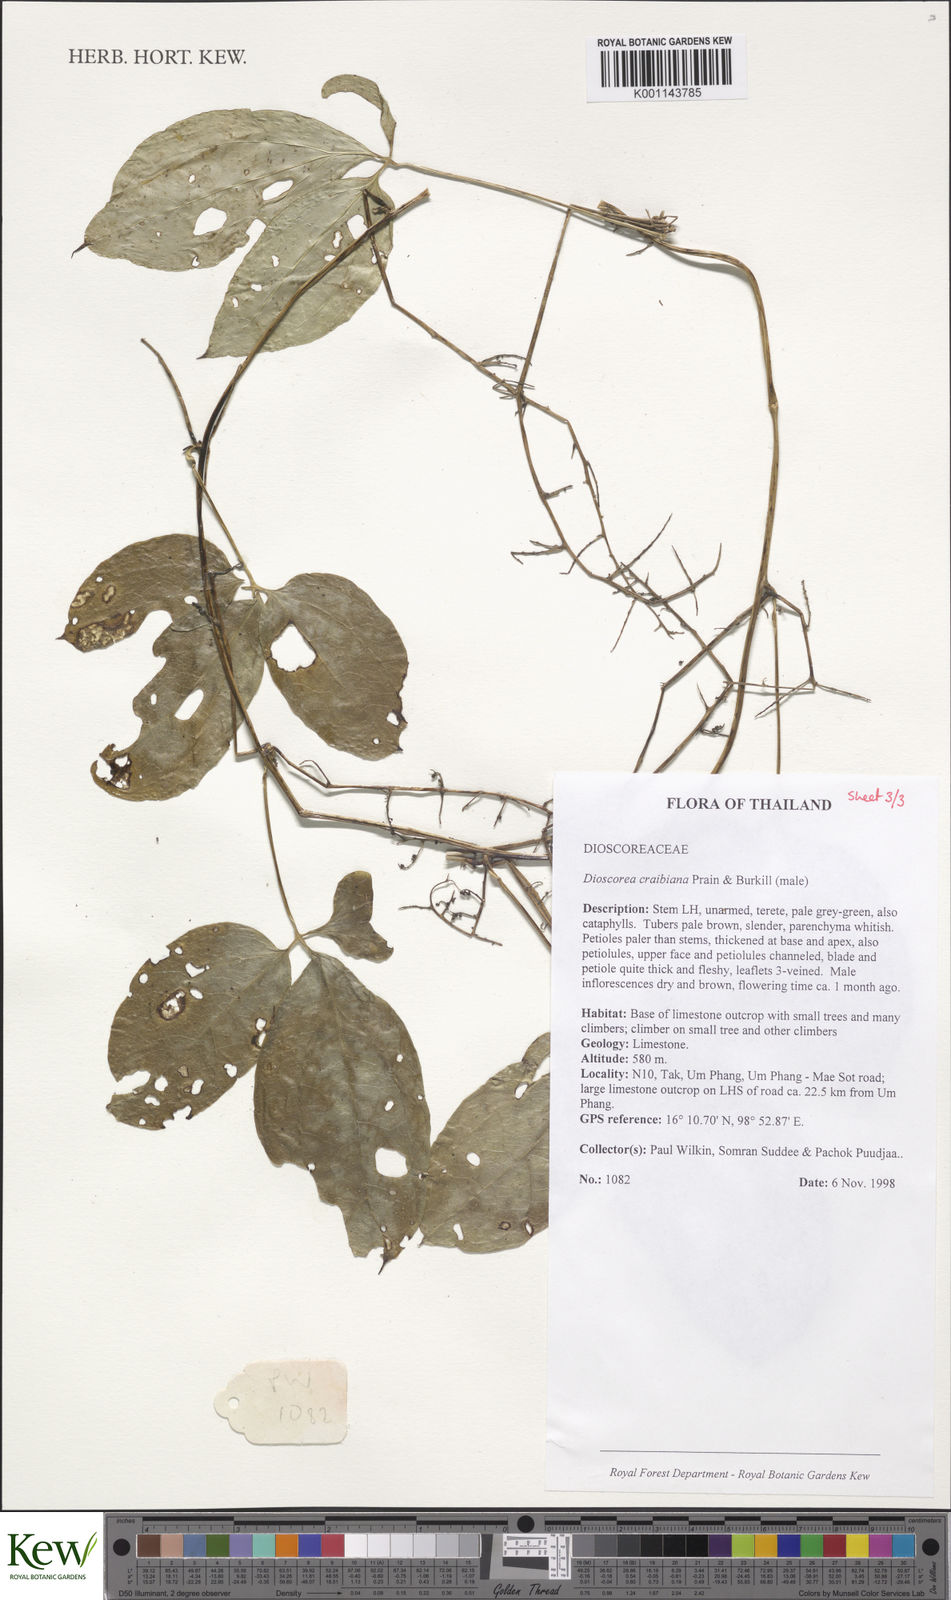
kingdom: Plantae
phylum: Tracheophyta
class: Liliopsida
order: Dioscoreales
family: Dioscoreaceae
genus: Dioscorea
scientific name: Dioscorea craibiana
